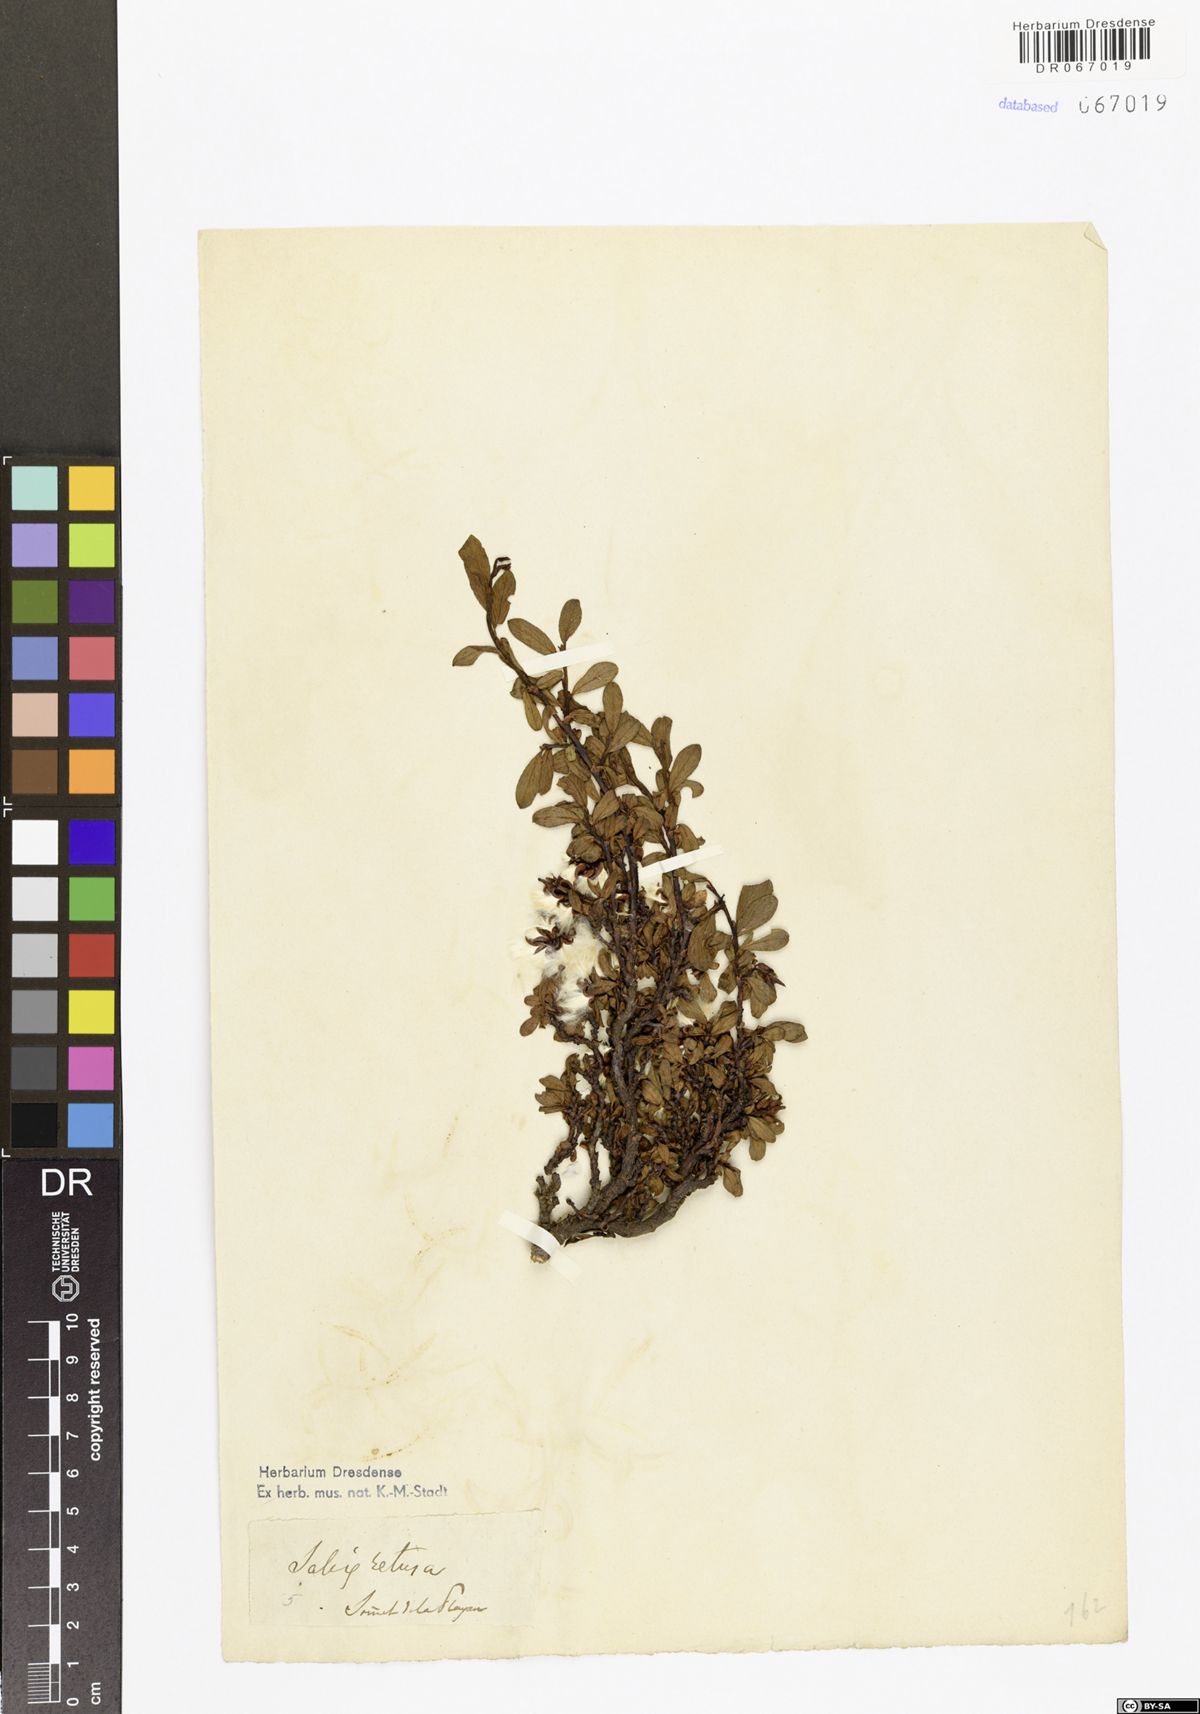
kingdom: Plantae
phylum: Tracheophyta
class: Magnoliopsida
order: Malpighiales
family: Salicaceae
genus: Salix
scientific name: Salix retusa
